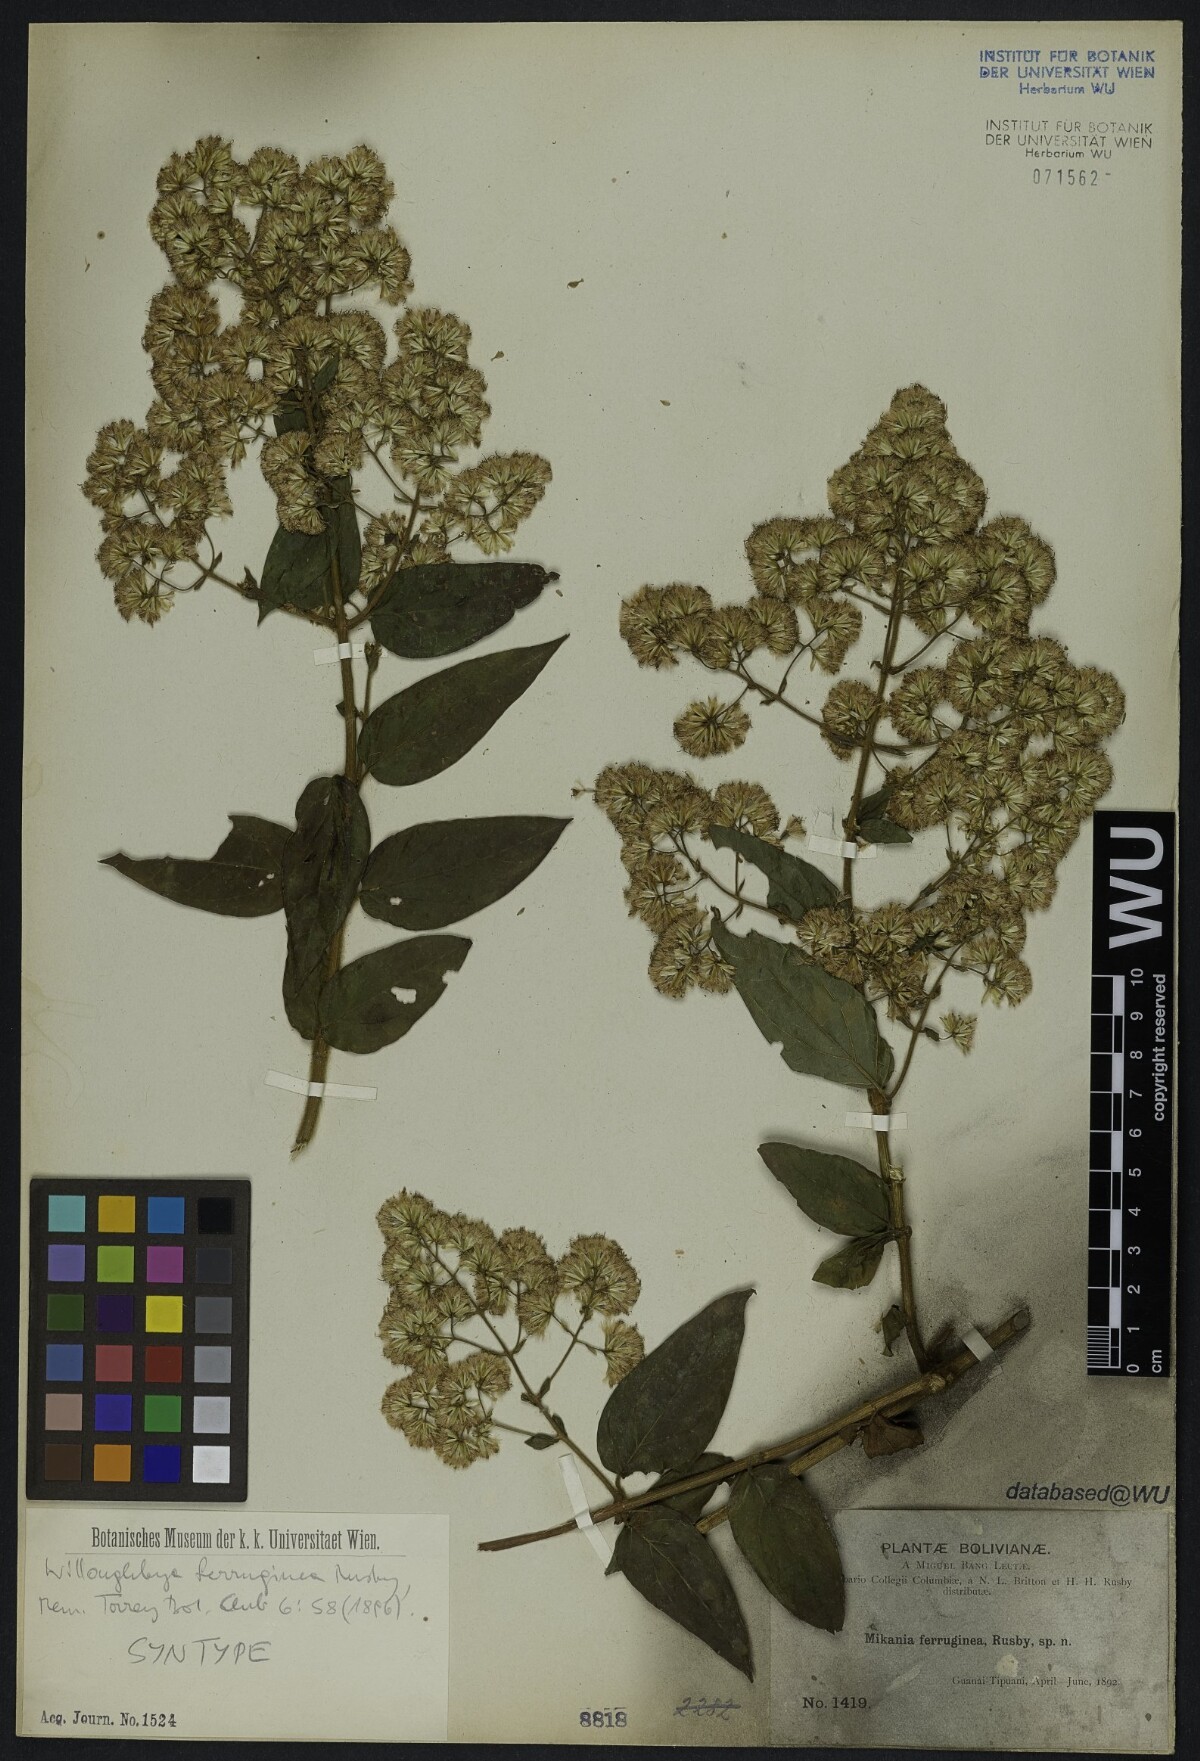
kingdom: Plantae
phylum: Tracheophyta
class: Magnoliopsida
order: Asterales
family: Asteraceae
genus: Mikania
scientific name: Mikania banisteriae
